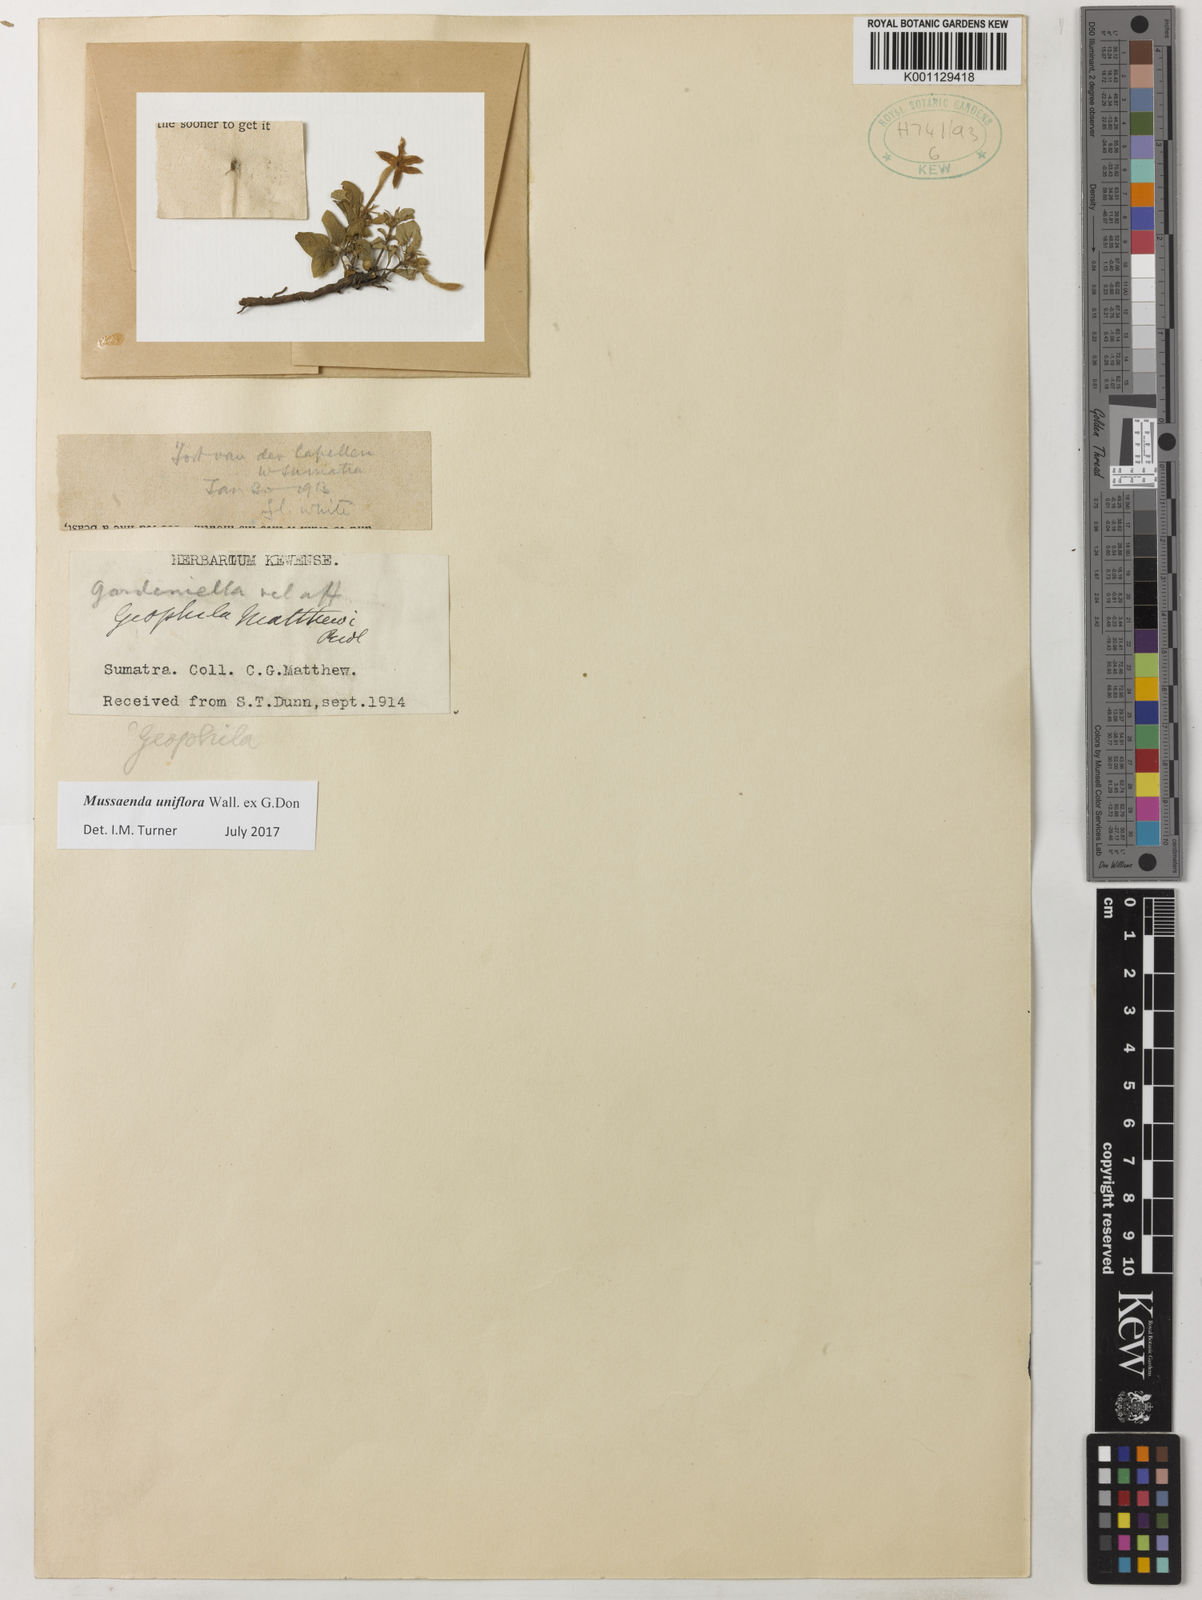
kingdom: Plantae
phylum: Tracheophyta
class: Magnoliopsida
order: Gentianales
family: Rubiaceae
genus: Mussaenda
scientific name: Mussaenda uniflora
